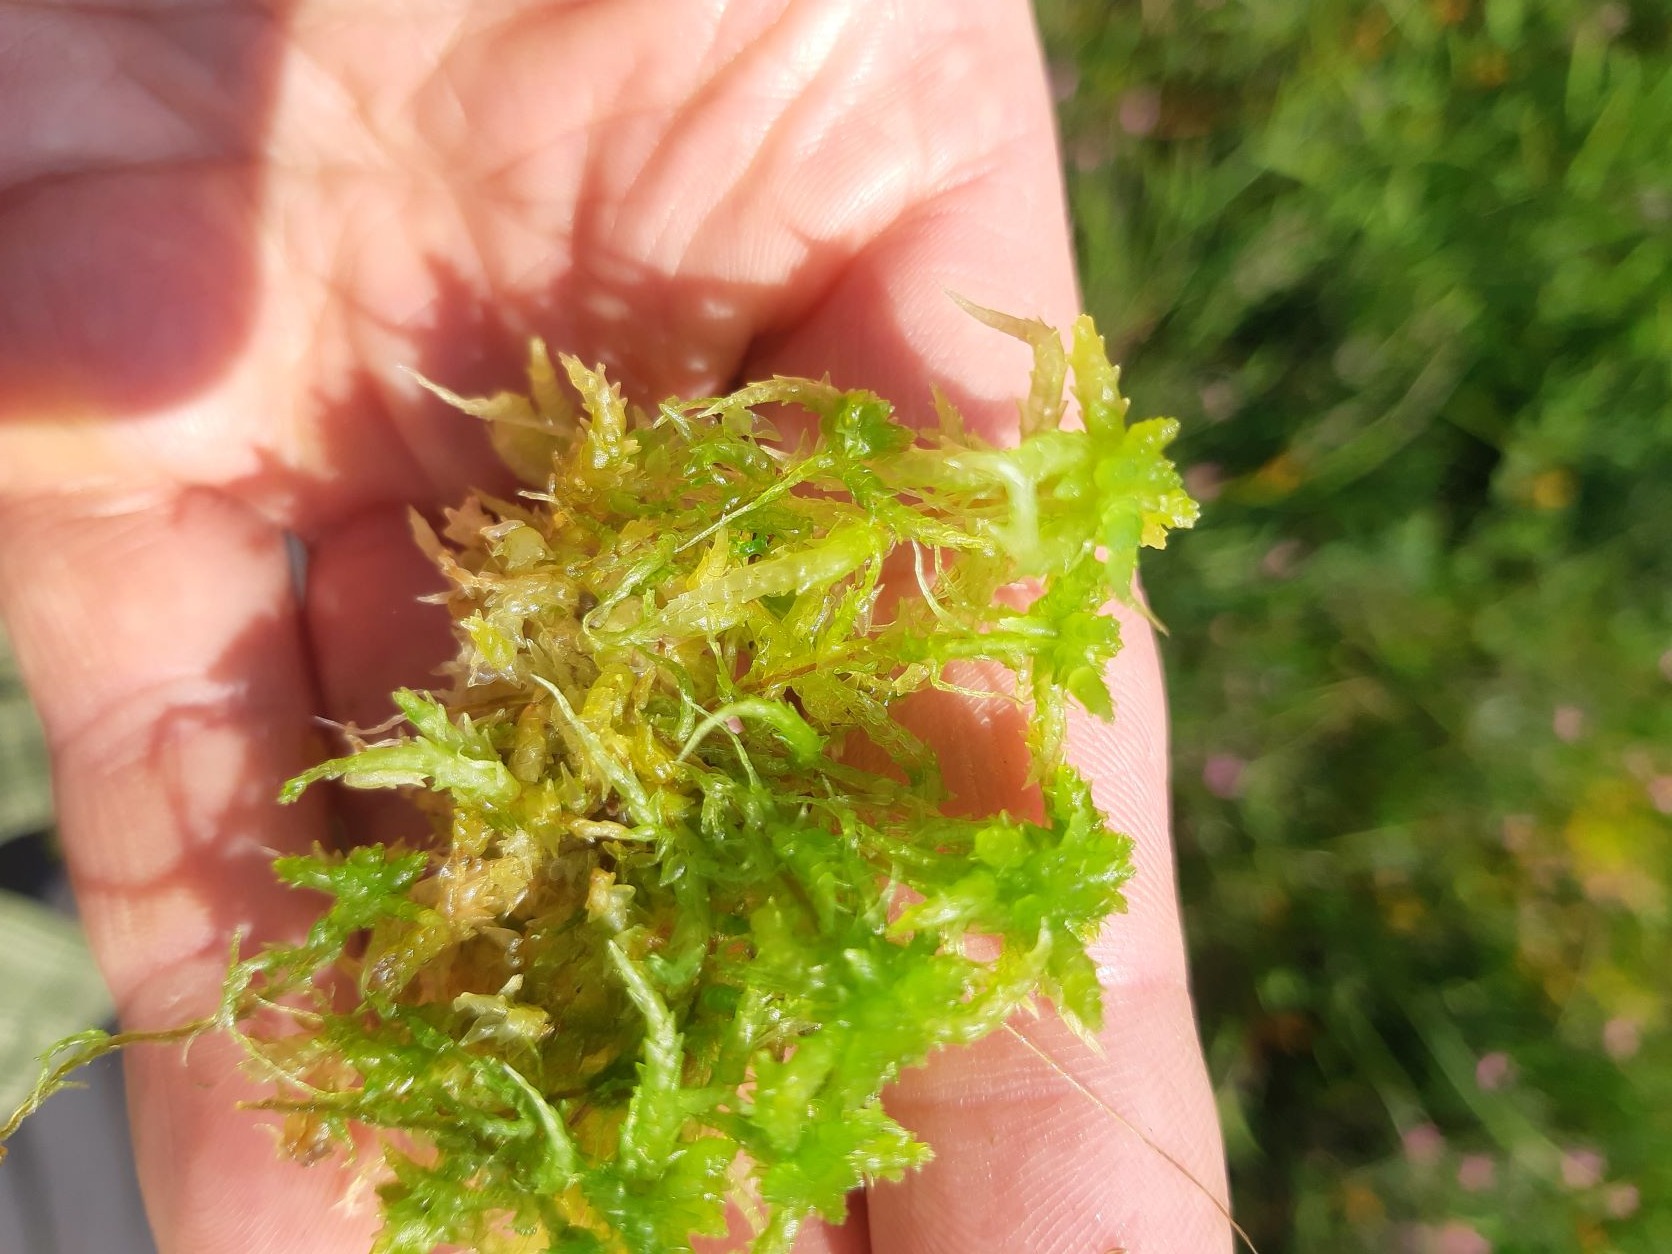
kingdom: Plantae
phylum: Bryophyta
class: Sphagnopsida
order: Sphagnales
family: Sphagnaceae
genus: Sphagnum
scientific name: Sphagnum
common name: Tørvemosslægten
